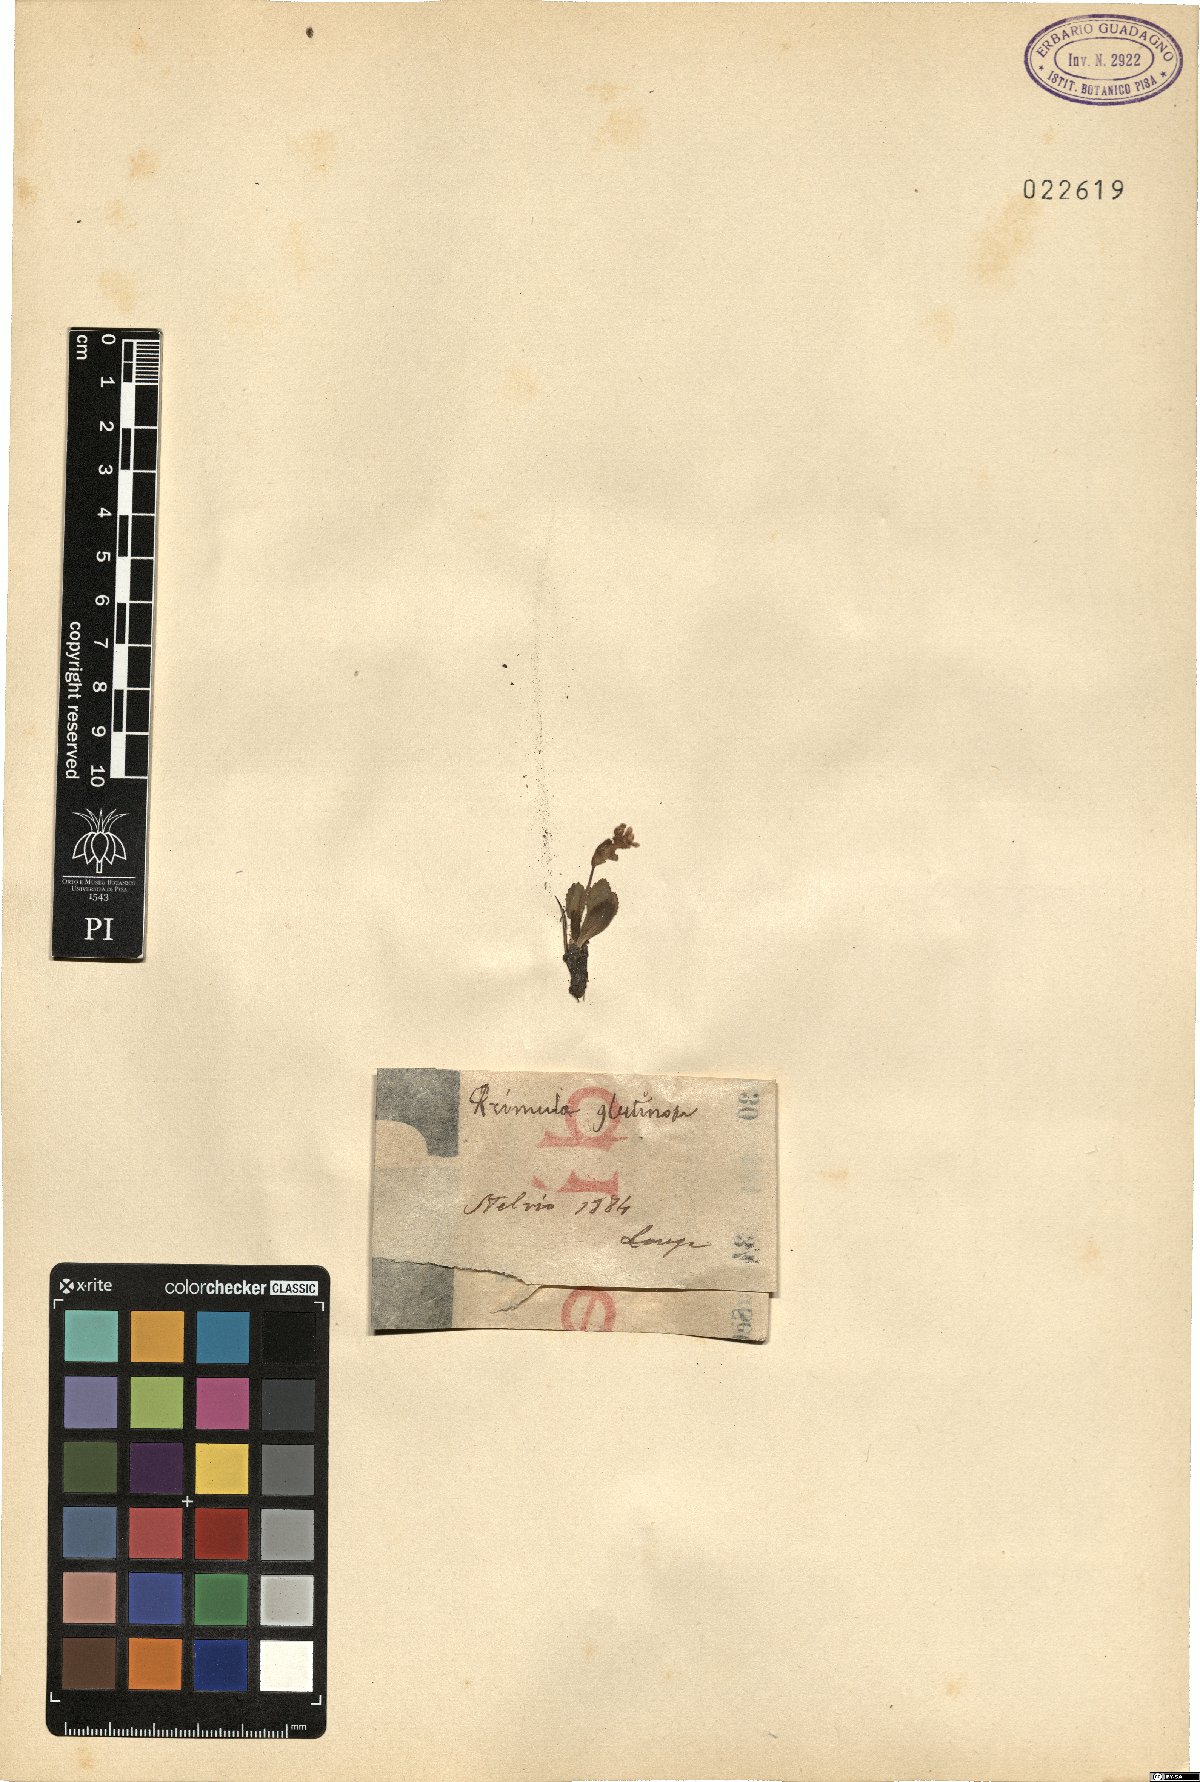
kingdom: Plantae
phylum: Tracheophyta
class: Magnoliopsida
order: Ericales
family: Primulaceae
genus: Primula
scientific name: Primula glutinosa
